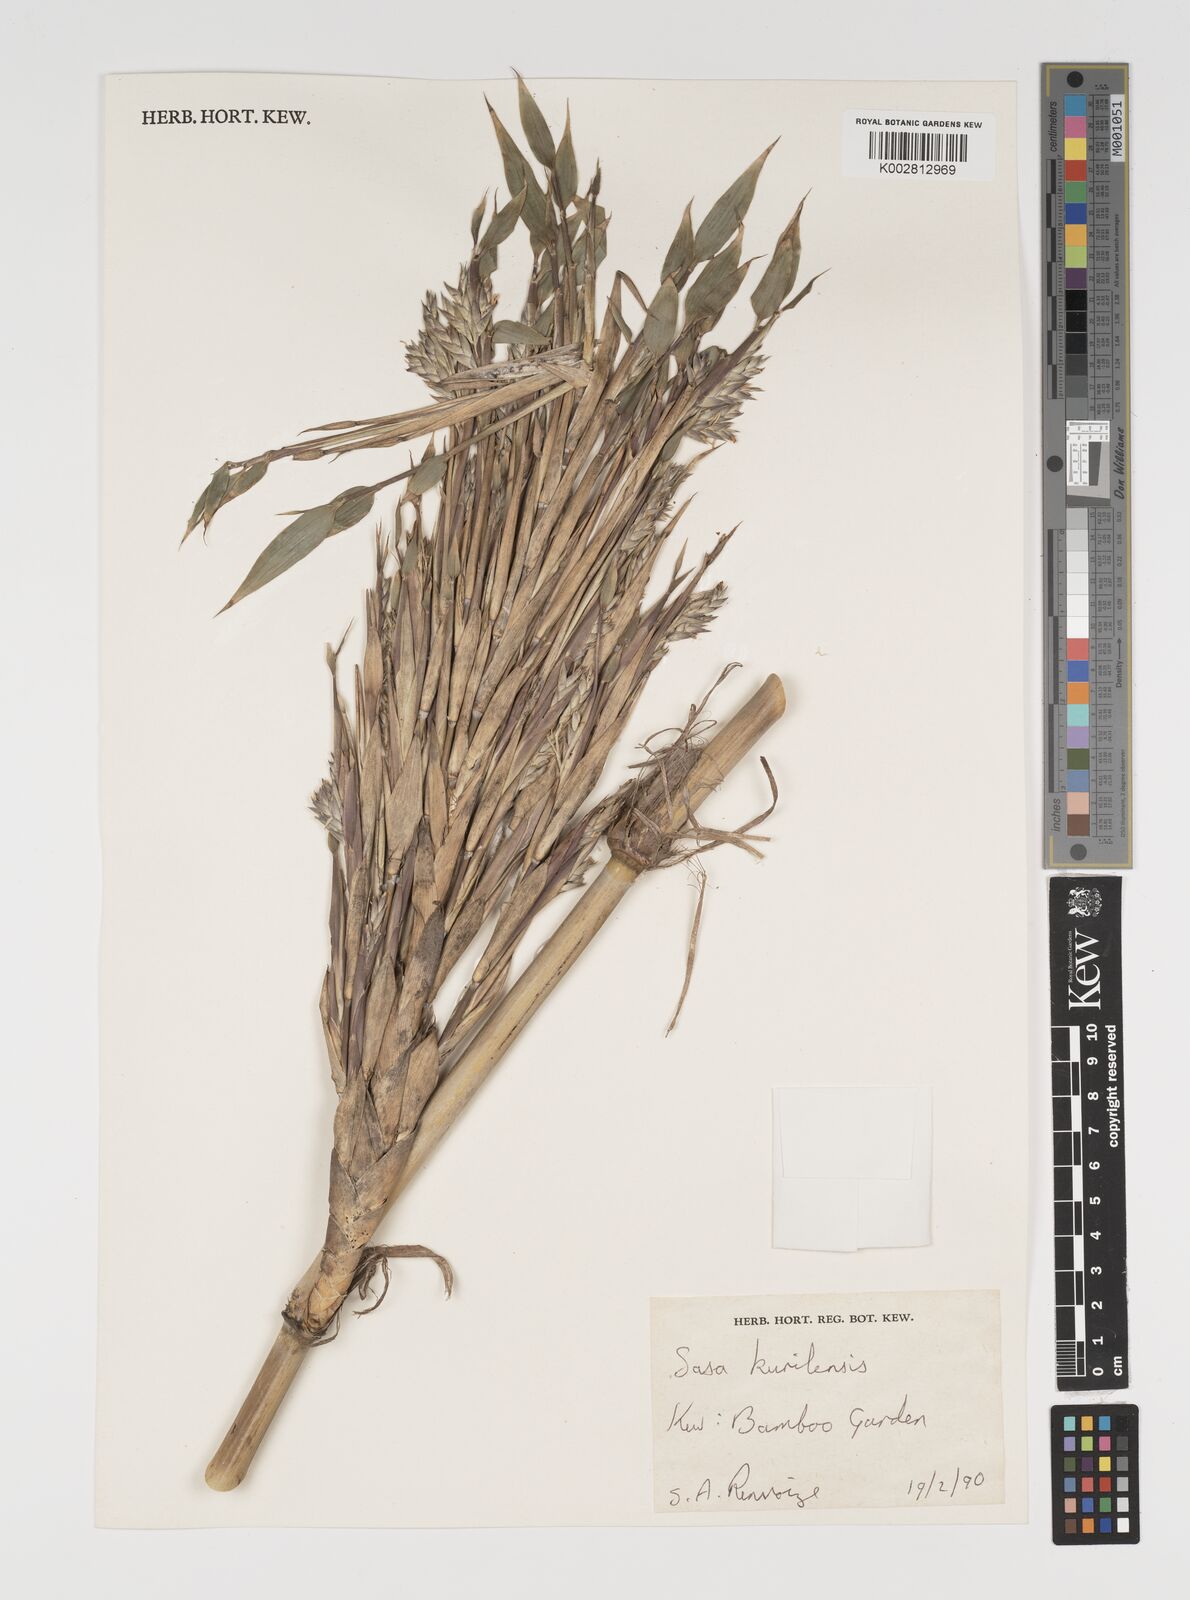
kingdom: Plantae
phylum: Tracheophyta
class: Liliopsida
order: Poales
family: Poaceae
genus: Sasa
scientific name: Sasa kurilensis
